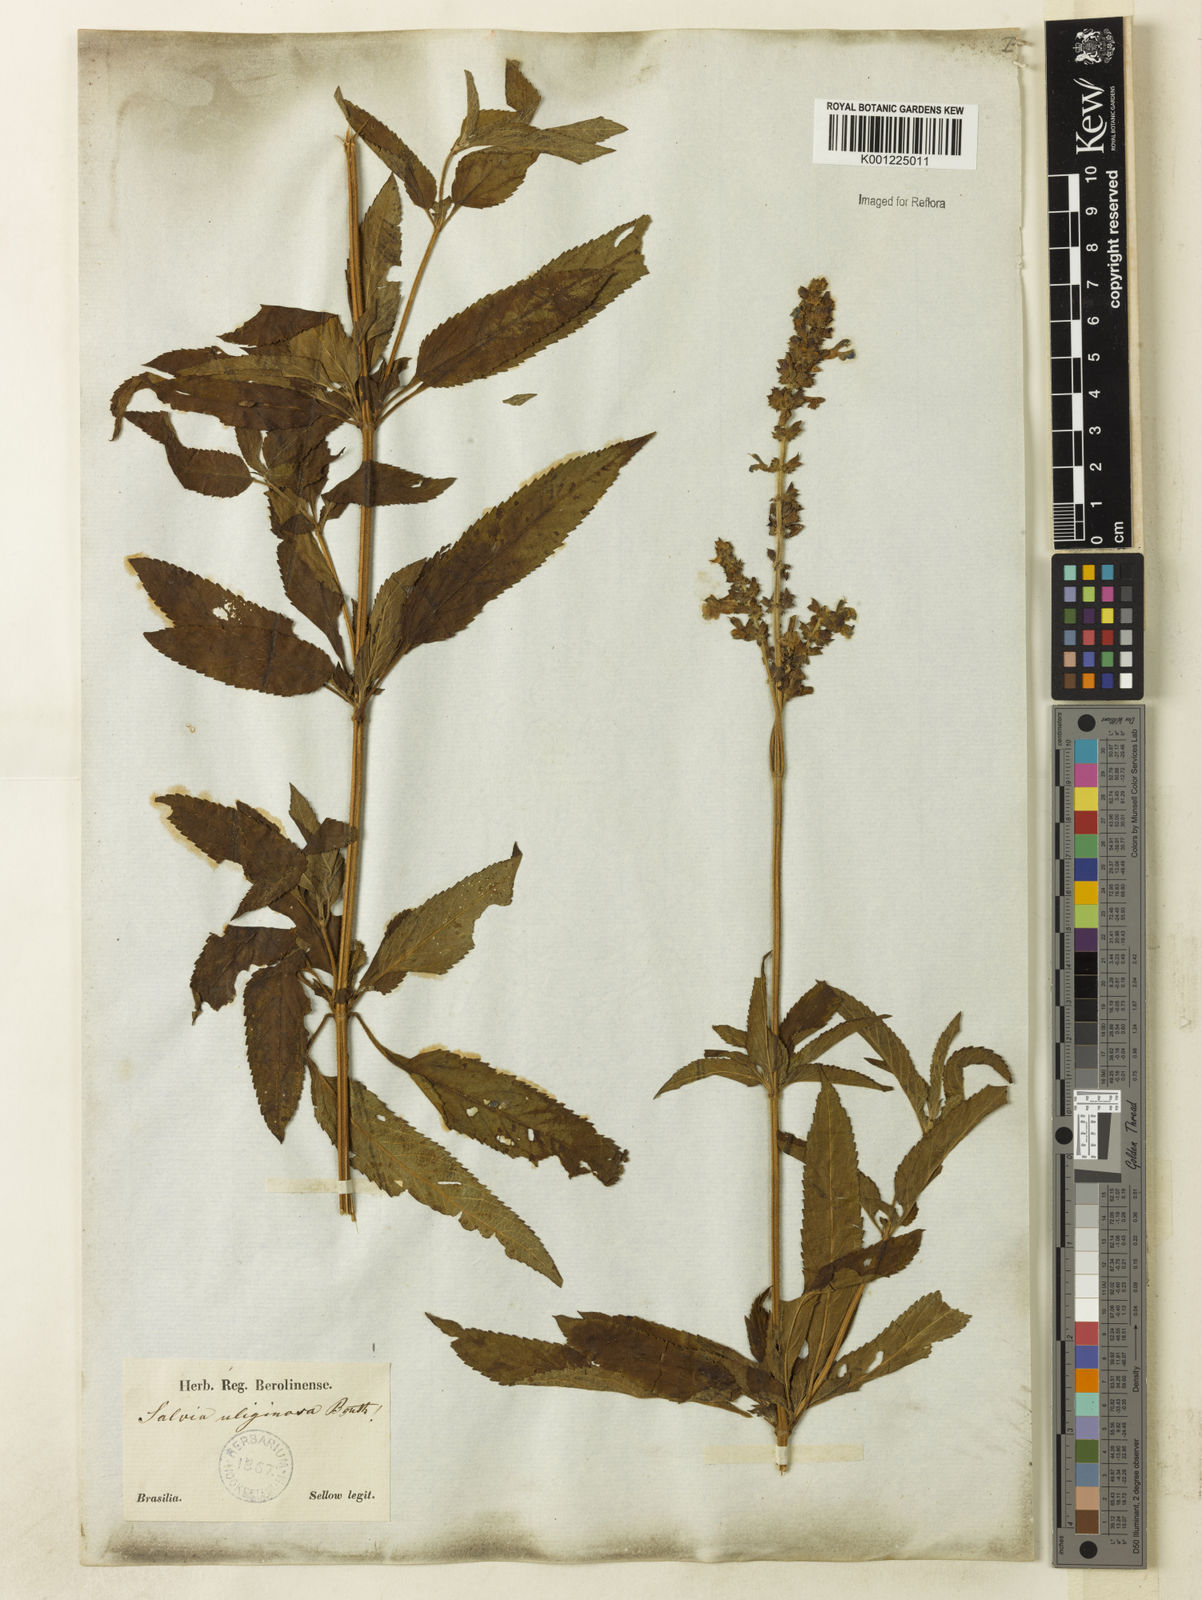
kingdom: Plantae
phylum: Tracheophyta
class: Magnoliopsida
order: Lamiales
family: Lamiaceae
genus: Salvia
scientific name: Salvia uliginosa
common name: Bog sage
